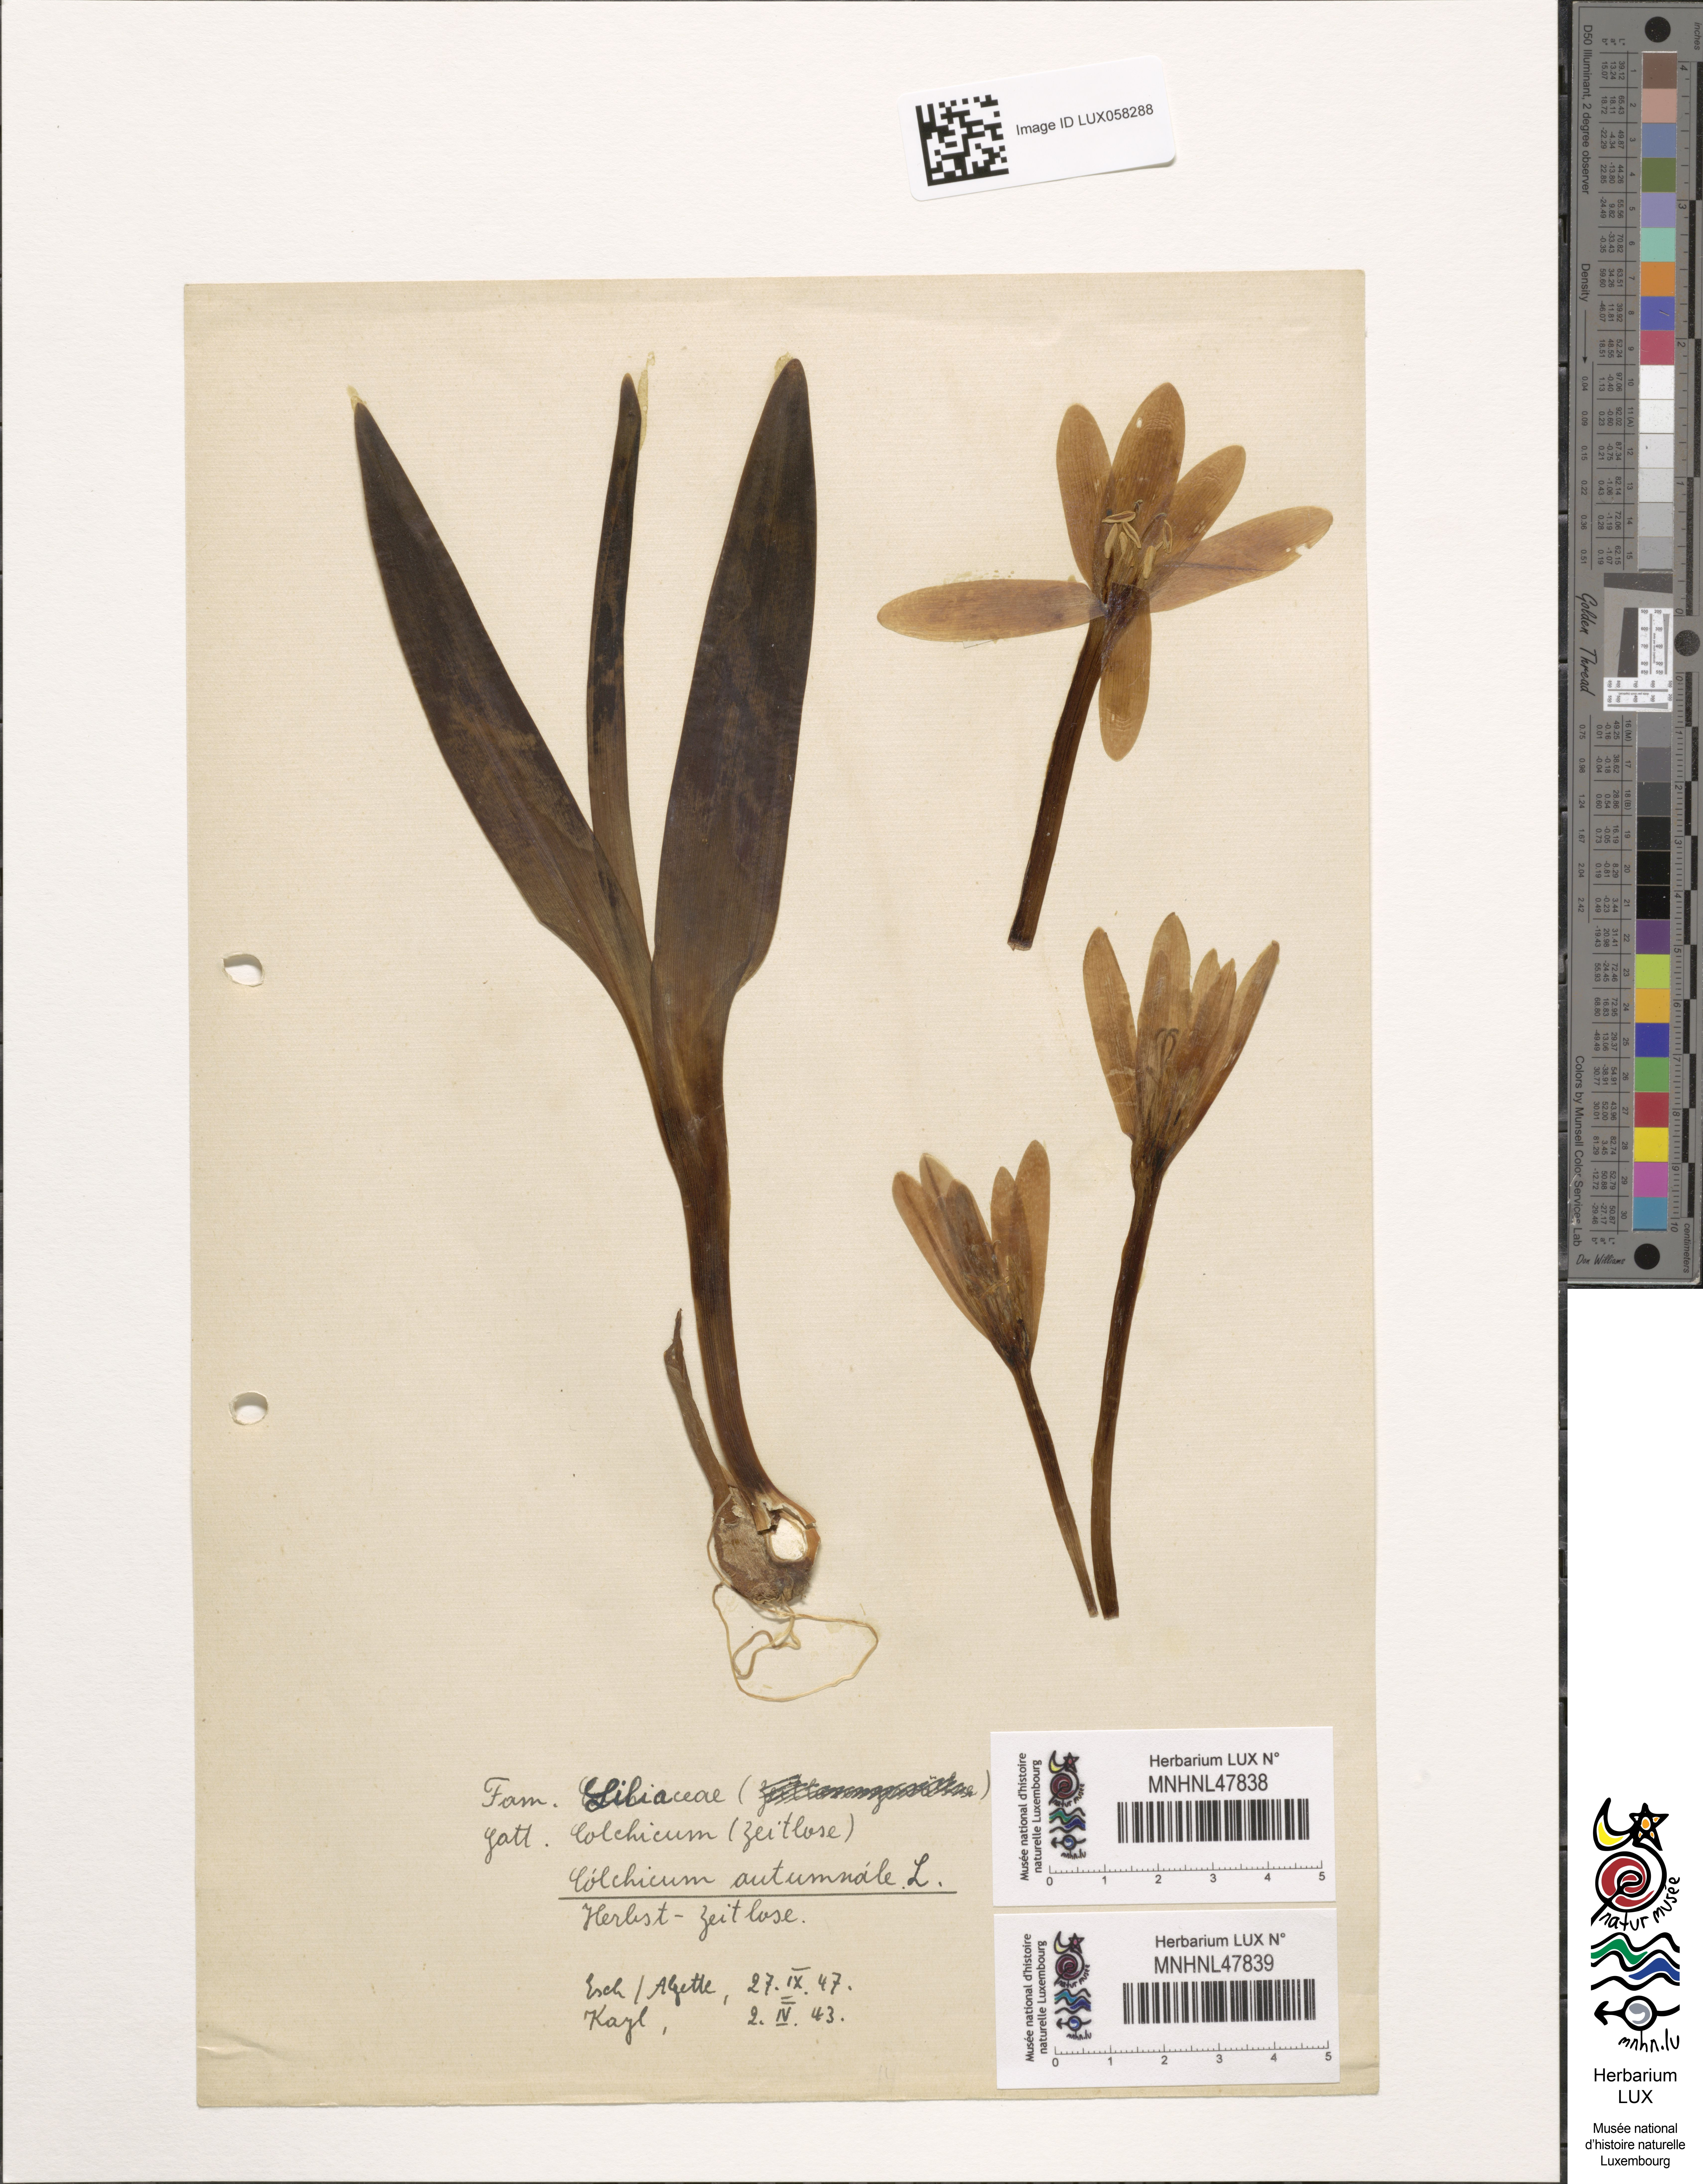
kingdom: Plantae
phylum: Tracheophyta
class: Liliopsida
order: Liliales
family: Colchicaceae
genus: Colchicum
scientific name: Colchicum autumnale
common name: Autumn crocus
